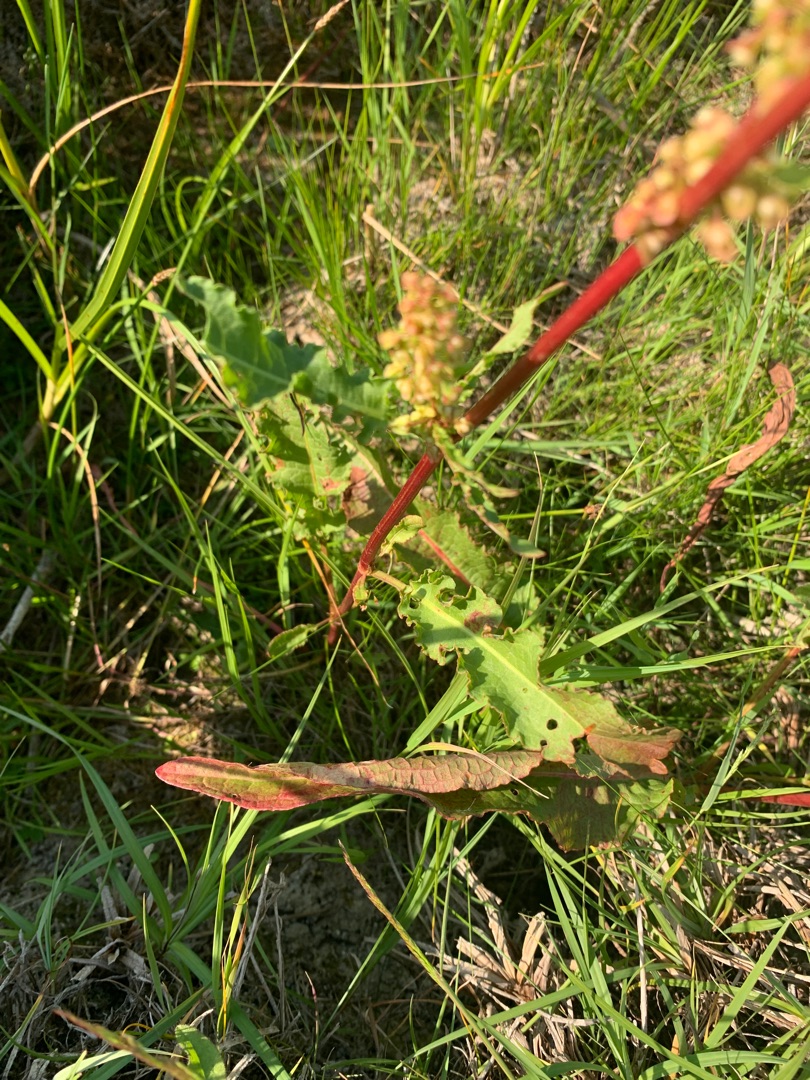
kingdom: Plantae
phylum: Tracheophyta
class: Magnoliopsida
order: Caryophyllales
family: Polygonaceae
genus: Rumex
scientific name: Rumex crispus
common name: Kruset skræppe
